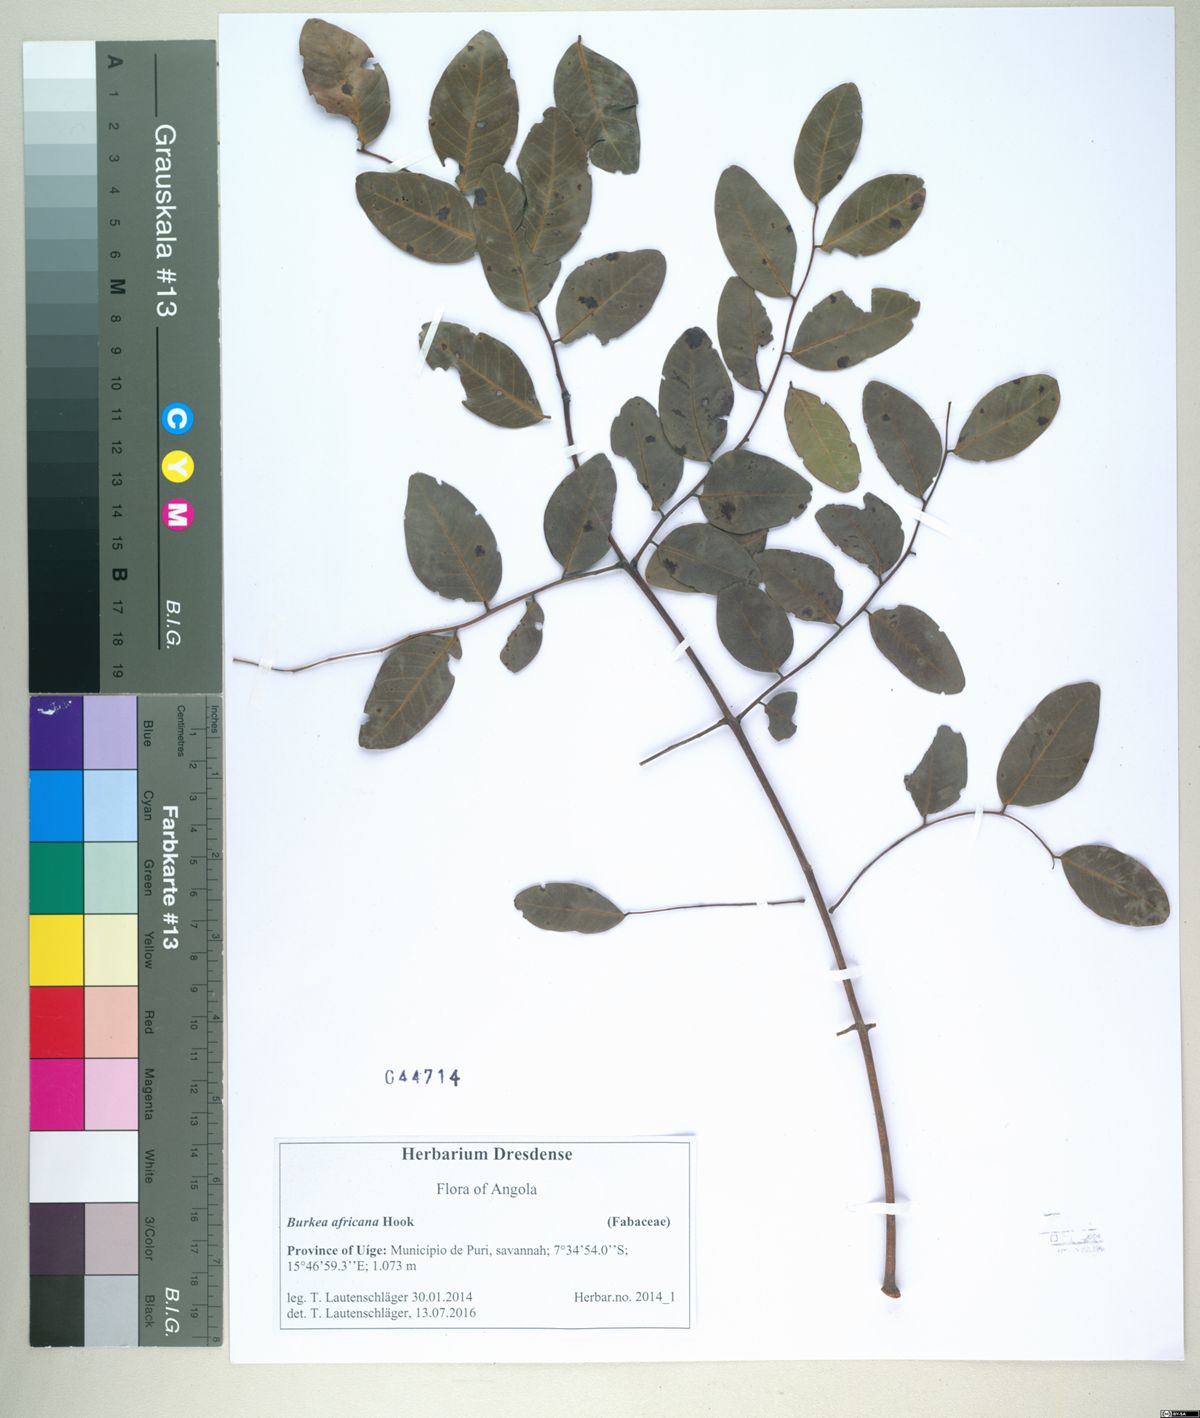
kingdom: Plantae
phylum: Tracheophyta
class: Magnoliopsida
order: Fabales
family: Fabaceae
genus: Burkea
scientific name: Burkea africana
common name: Mkalati tree
